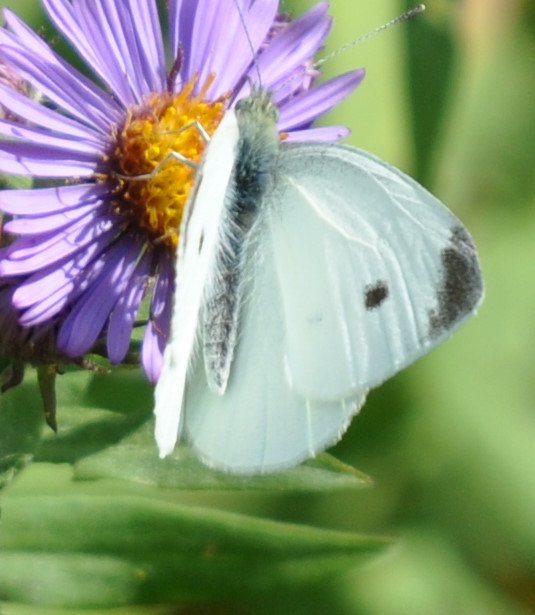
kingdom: Animalia
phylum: Arthropoda
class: Insecta
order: Lepidoptera
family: Pieridae
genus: Pieris
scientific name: Pieris rapae
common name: Cabbage White
